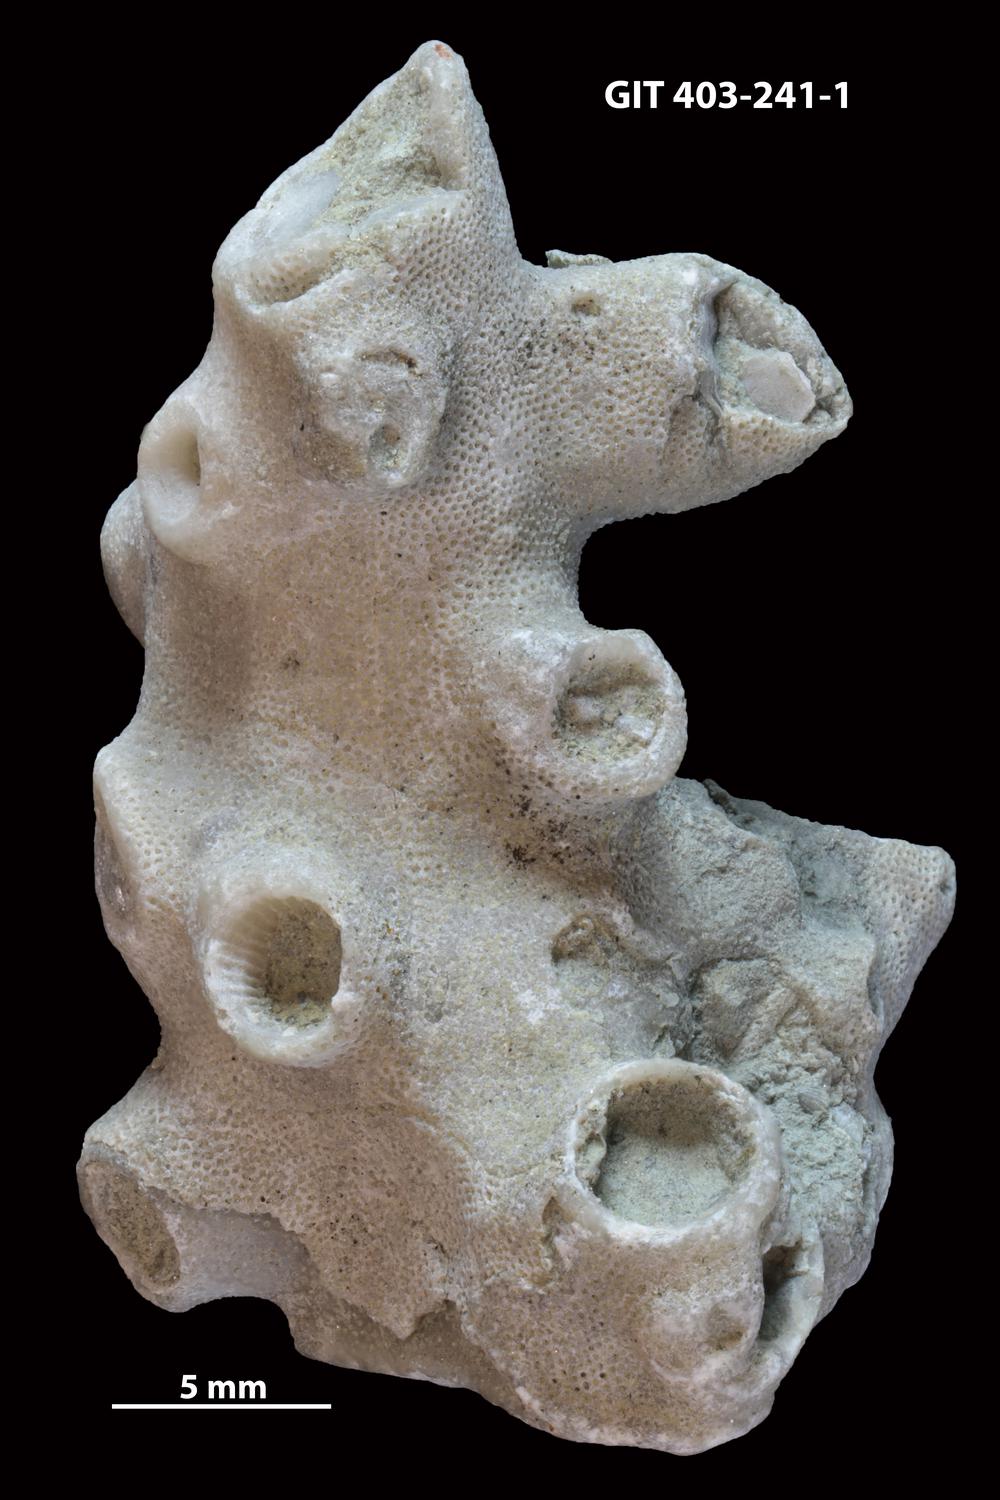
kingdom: Animalia
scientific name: Animalia
